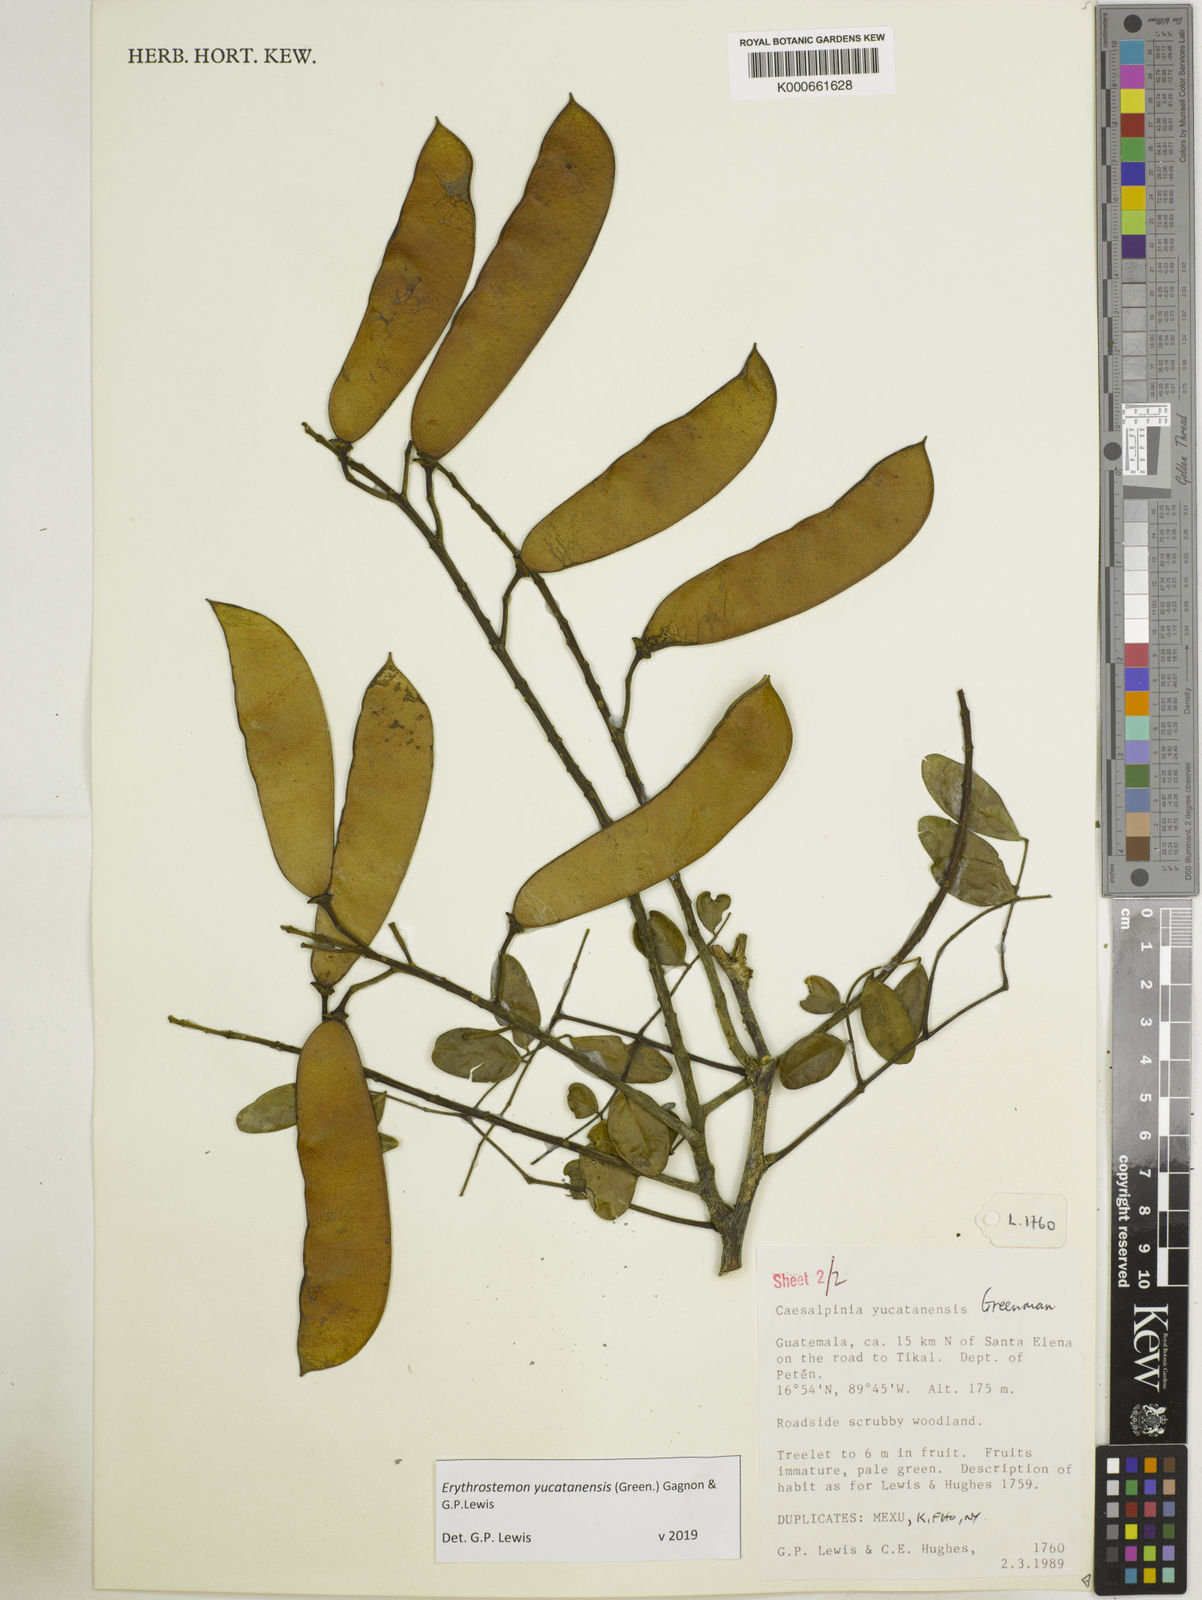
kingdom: Plantae
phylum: Tracheophyta
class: Magnoliopsida
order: Fabales
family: Fabaceae
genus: Caesalpinia
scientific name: Caesalpinia
